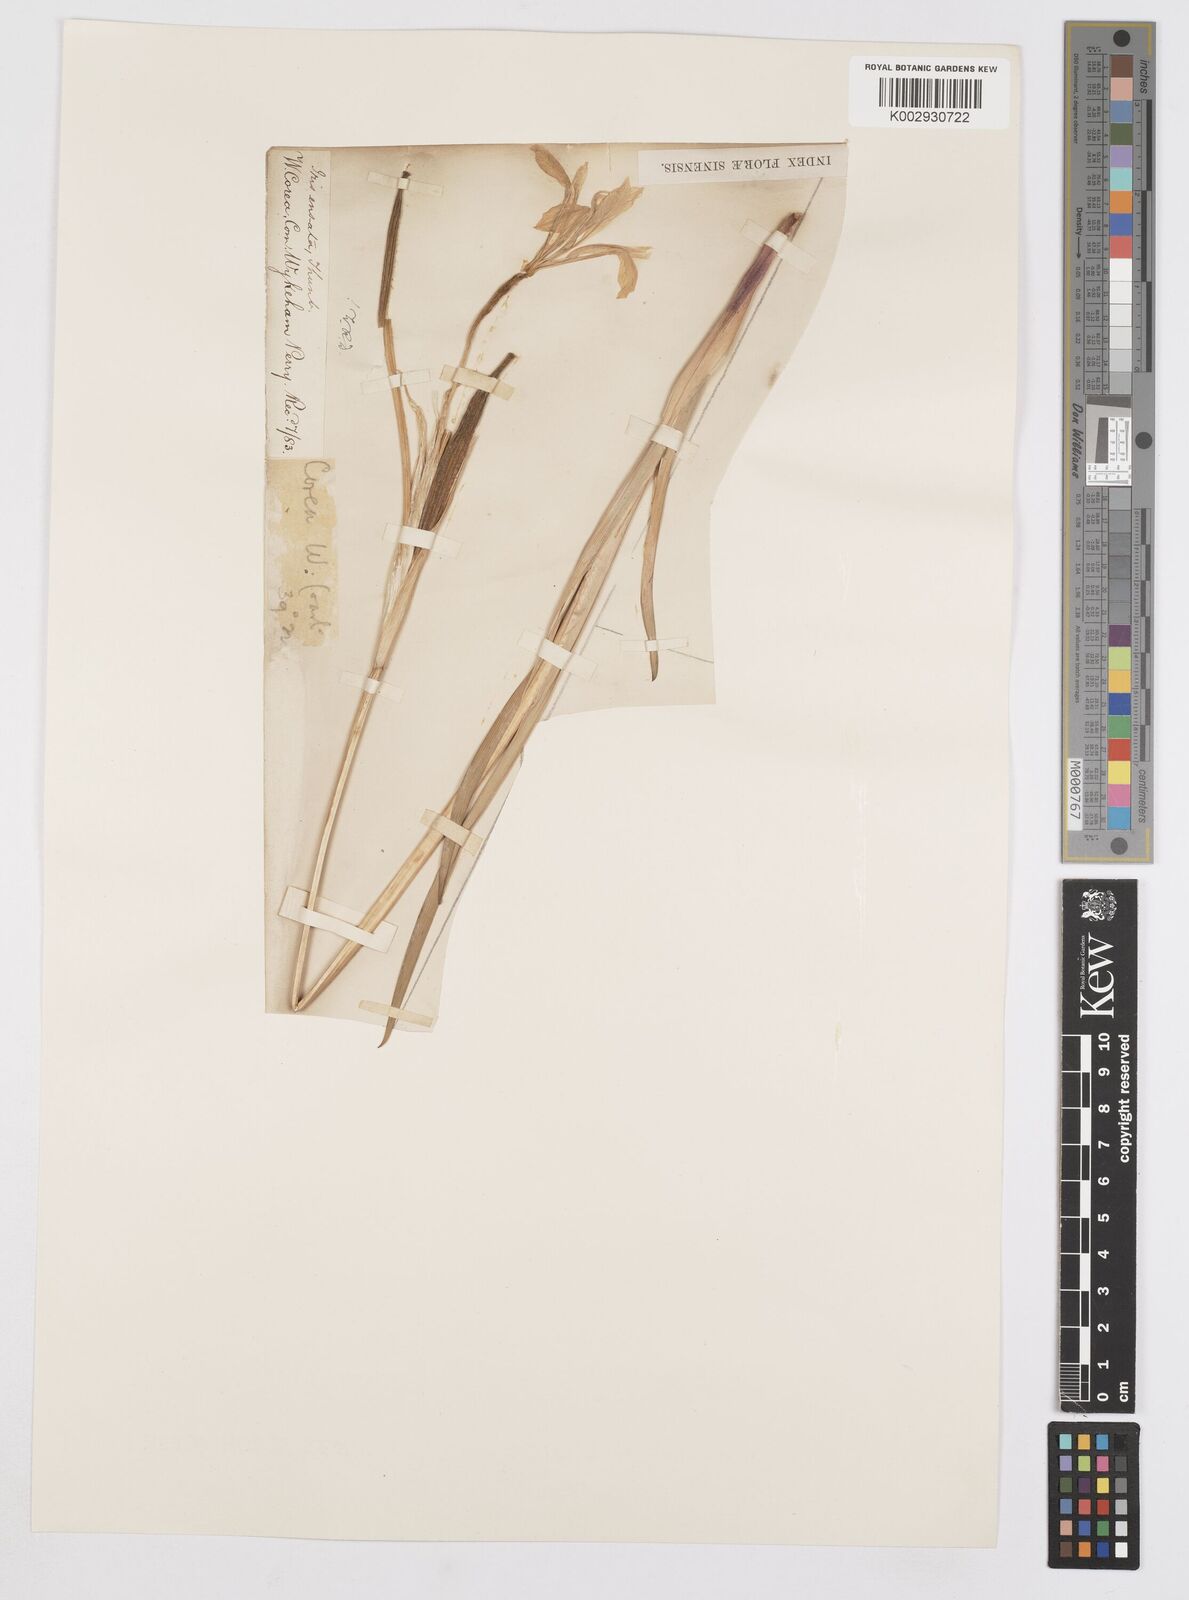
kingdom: Plantae
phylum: Tracheophyta
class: Liliopsida
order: Asparagales
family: Iridaceae
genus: Iris
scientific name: Iris ensata
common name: Beaked iris
